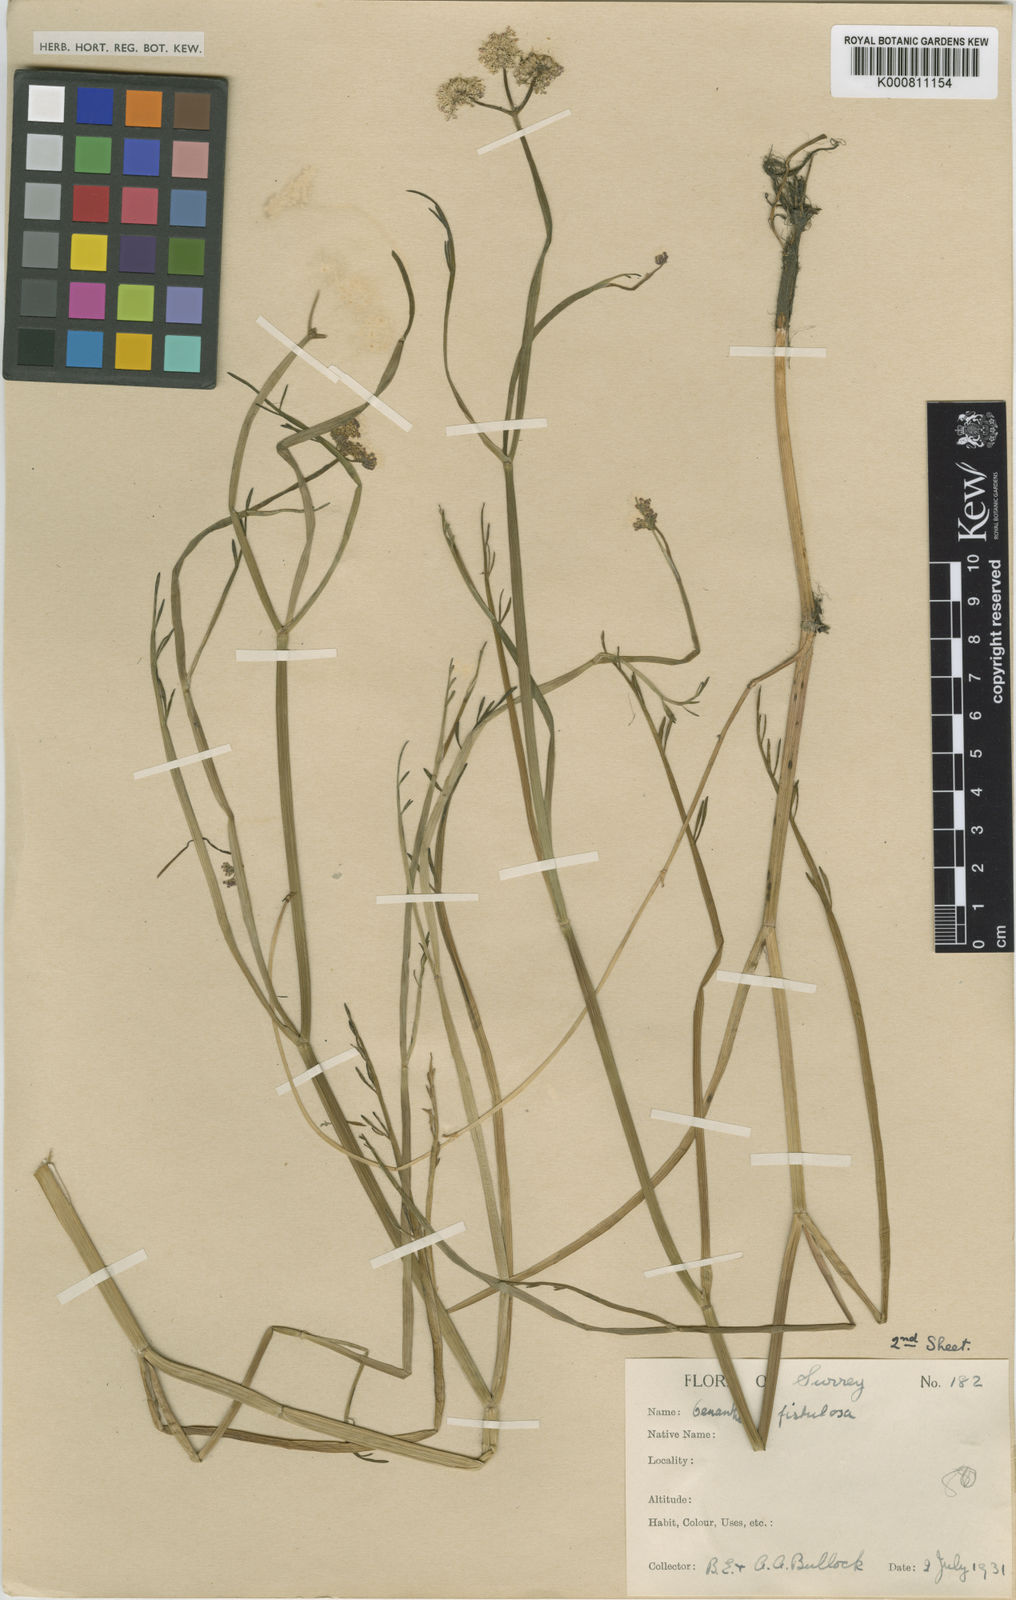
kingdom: Plantae
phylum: Tracheophyta
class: Magnoliopsida
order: Apiales
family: Apiaceae
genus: Oenanthe
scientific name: Oenanthe fistulosa
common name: Tubular water-dropwort
